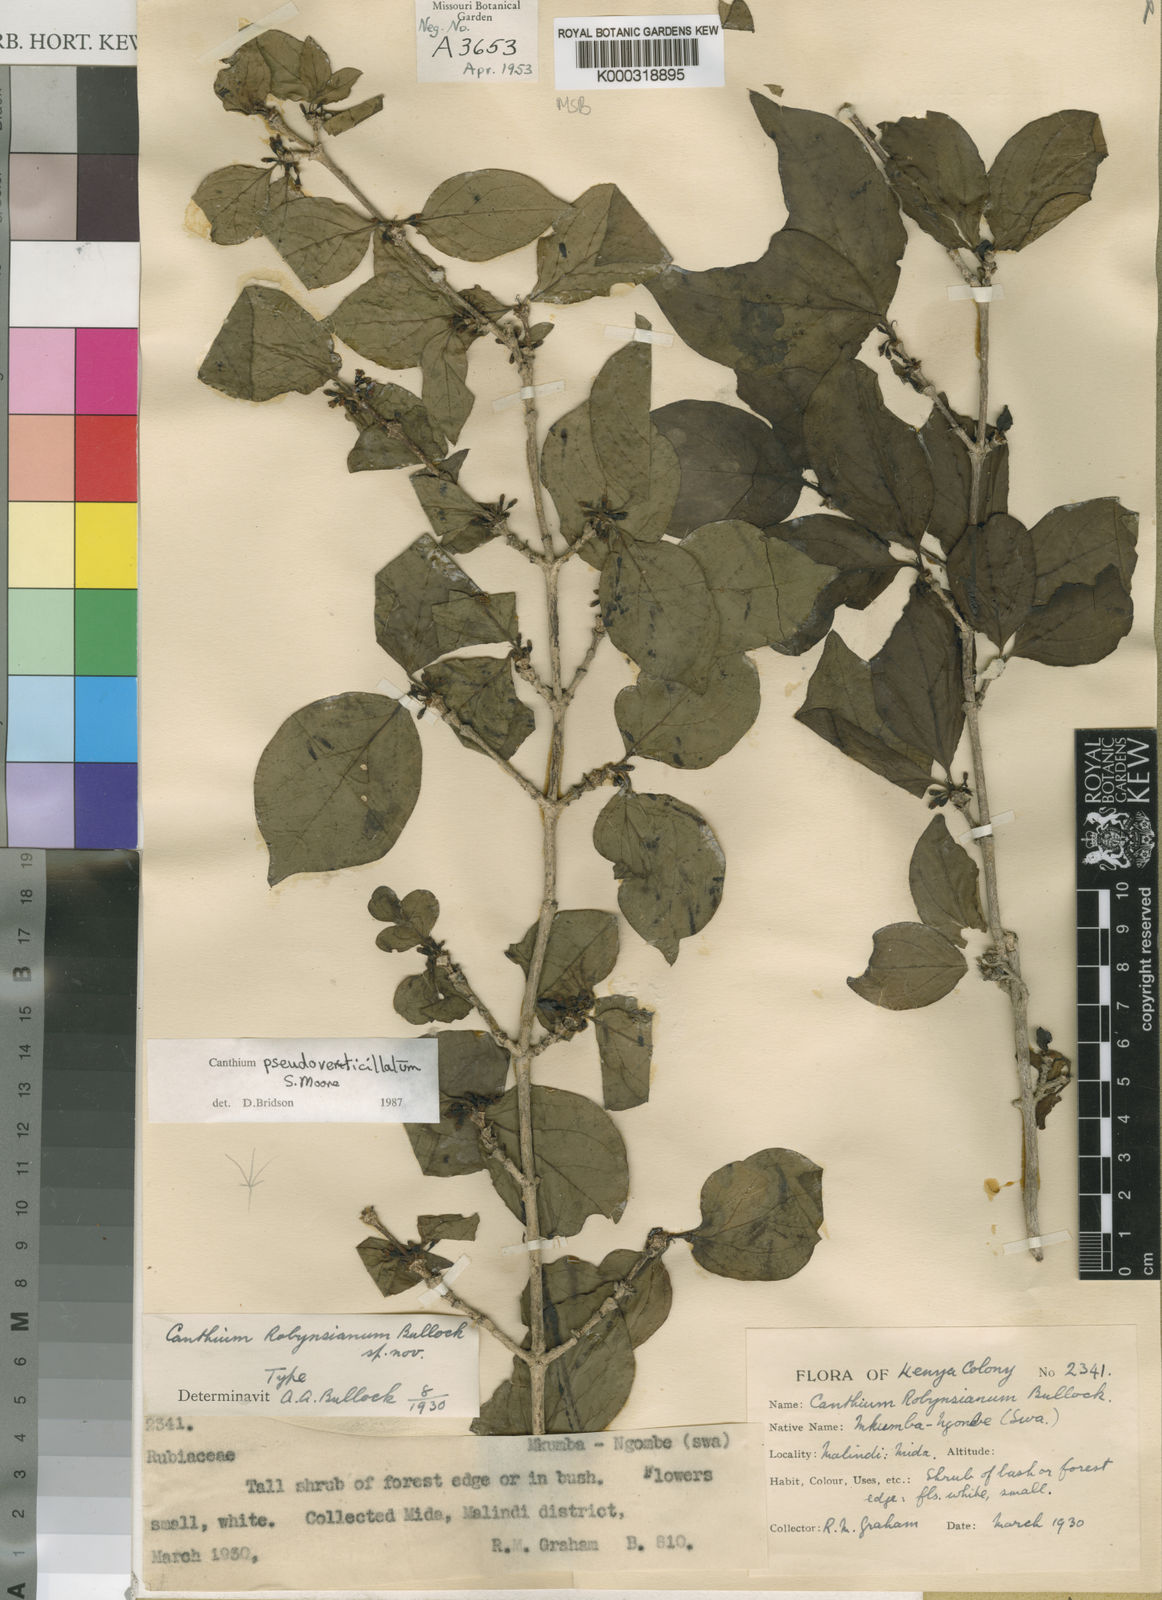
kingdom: Plantae
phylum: Tracheophyta
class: Magnoliopsida
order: Gentianales
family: Rubiaceae
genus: Afrocanthium
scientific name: Afrocanthium pseudoverticillatum
